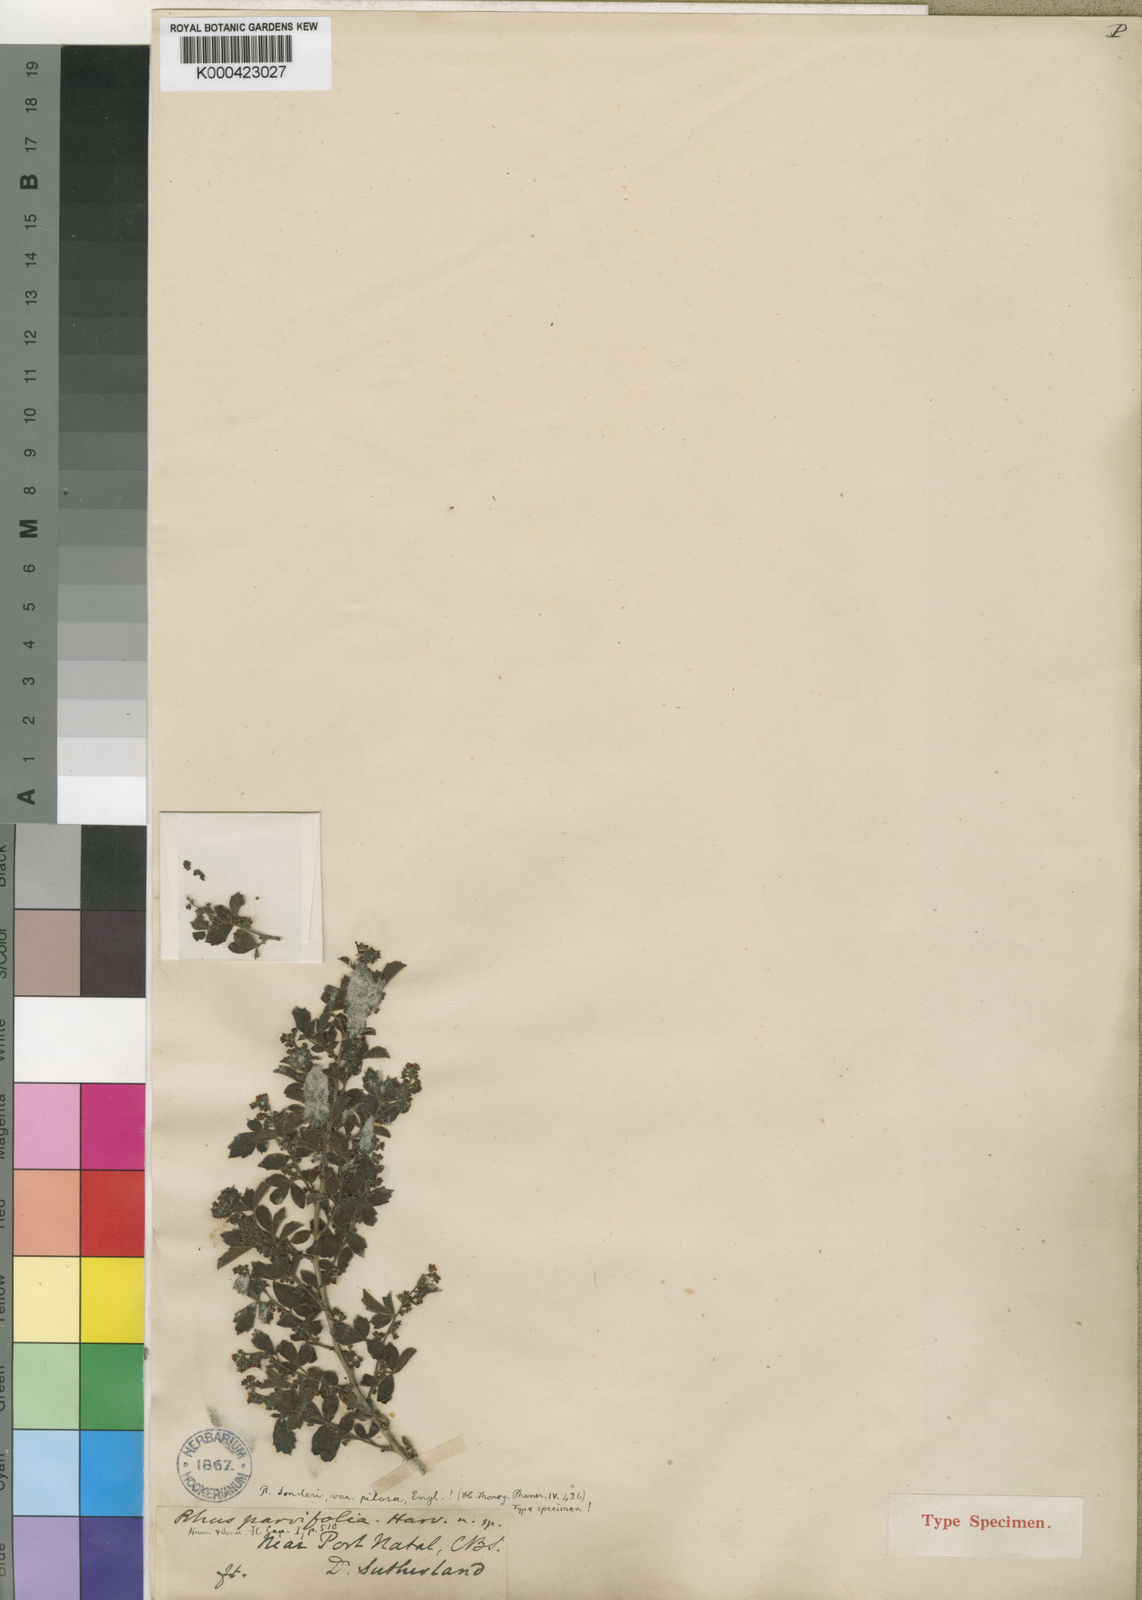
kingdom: Plantae
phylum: Tracheophyta
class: Magnoliopsida
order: Sapindales
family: Anacardiaceae
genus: Searsia
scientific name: Searsia dentata
